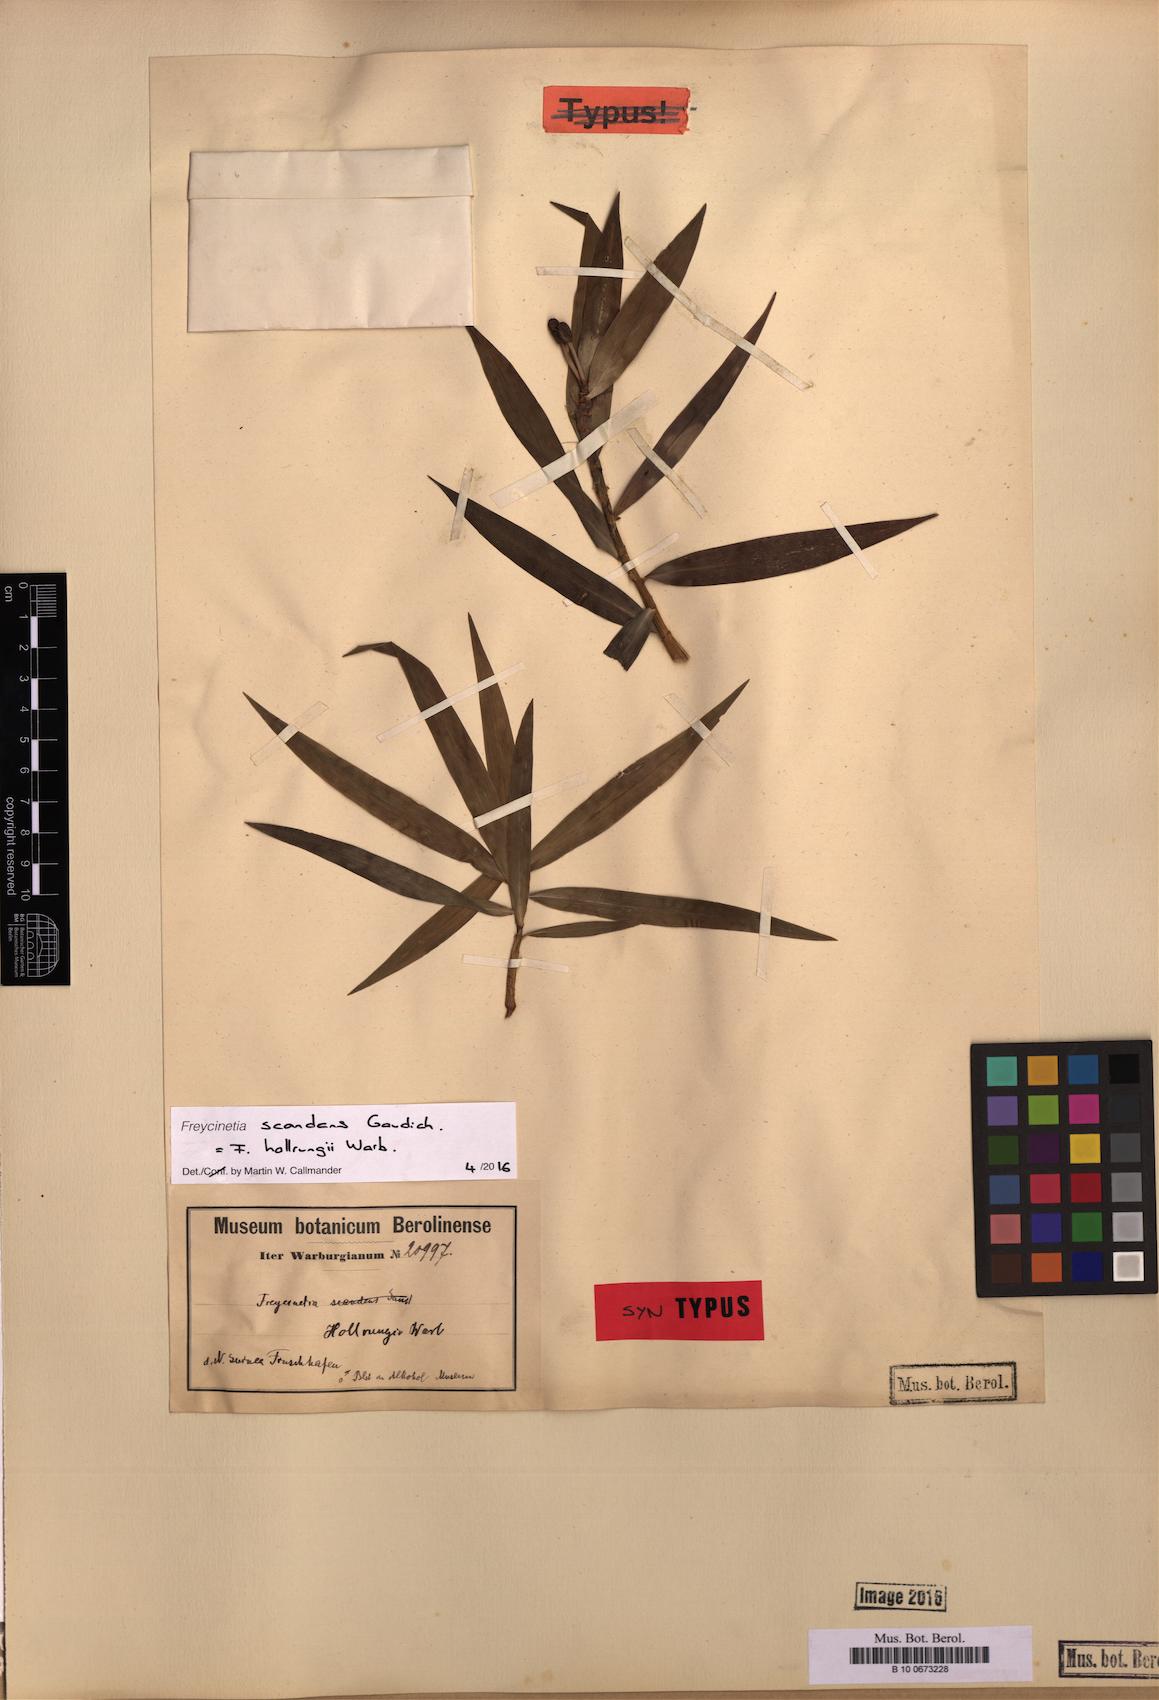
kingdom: Plantae
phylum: Tracheophyta
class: Liliopsida
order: Pandanales
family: Pandanaceae
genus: Freycinetia
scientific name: Freycinetia scandens
